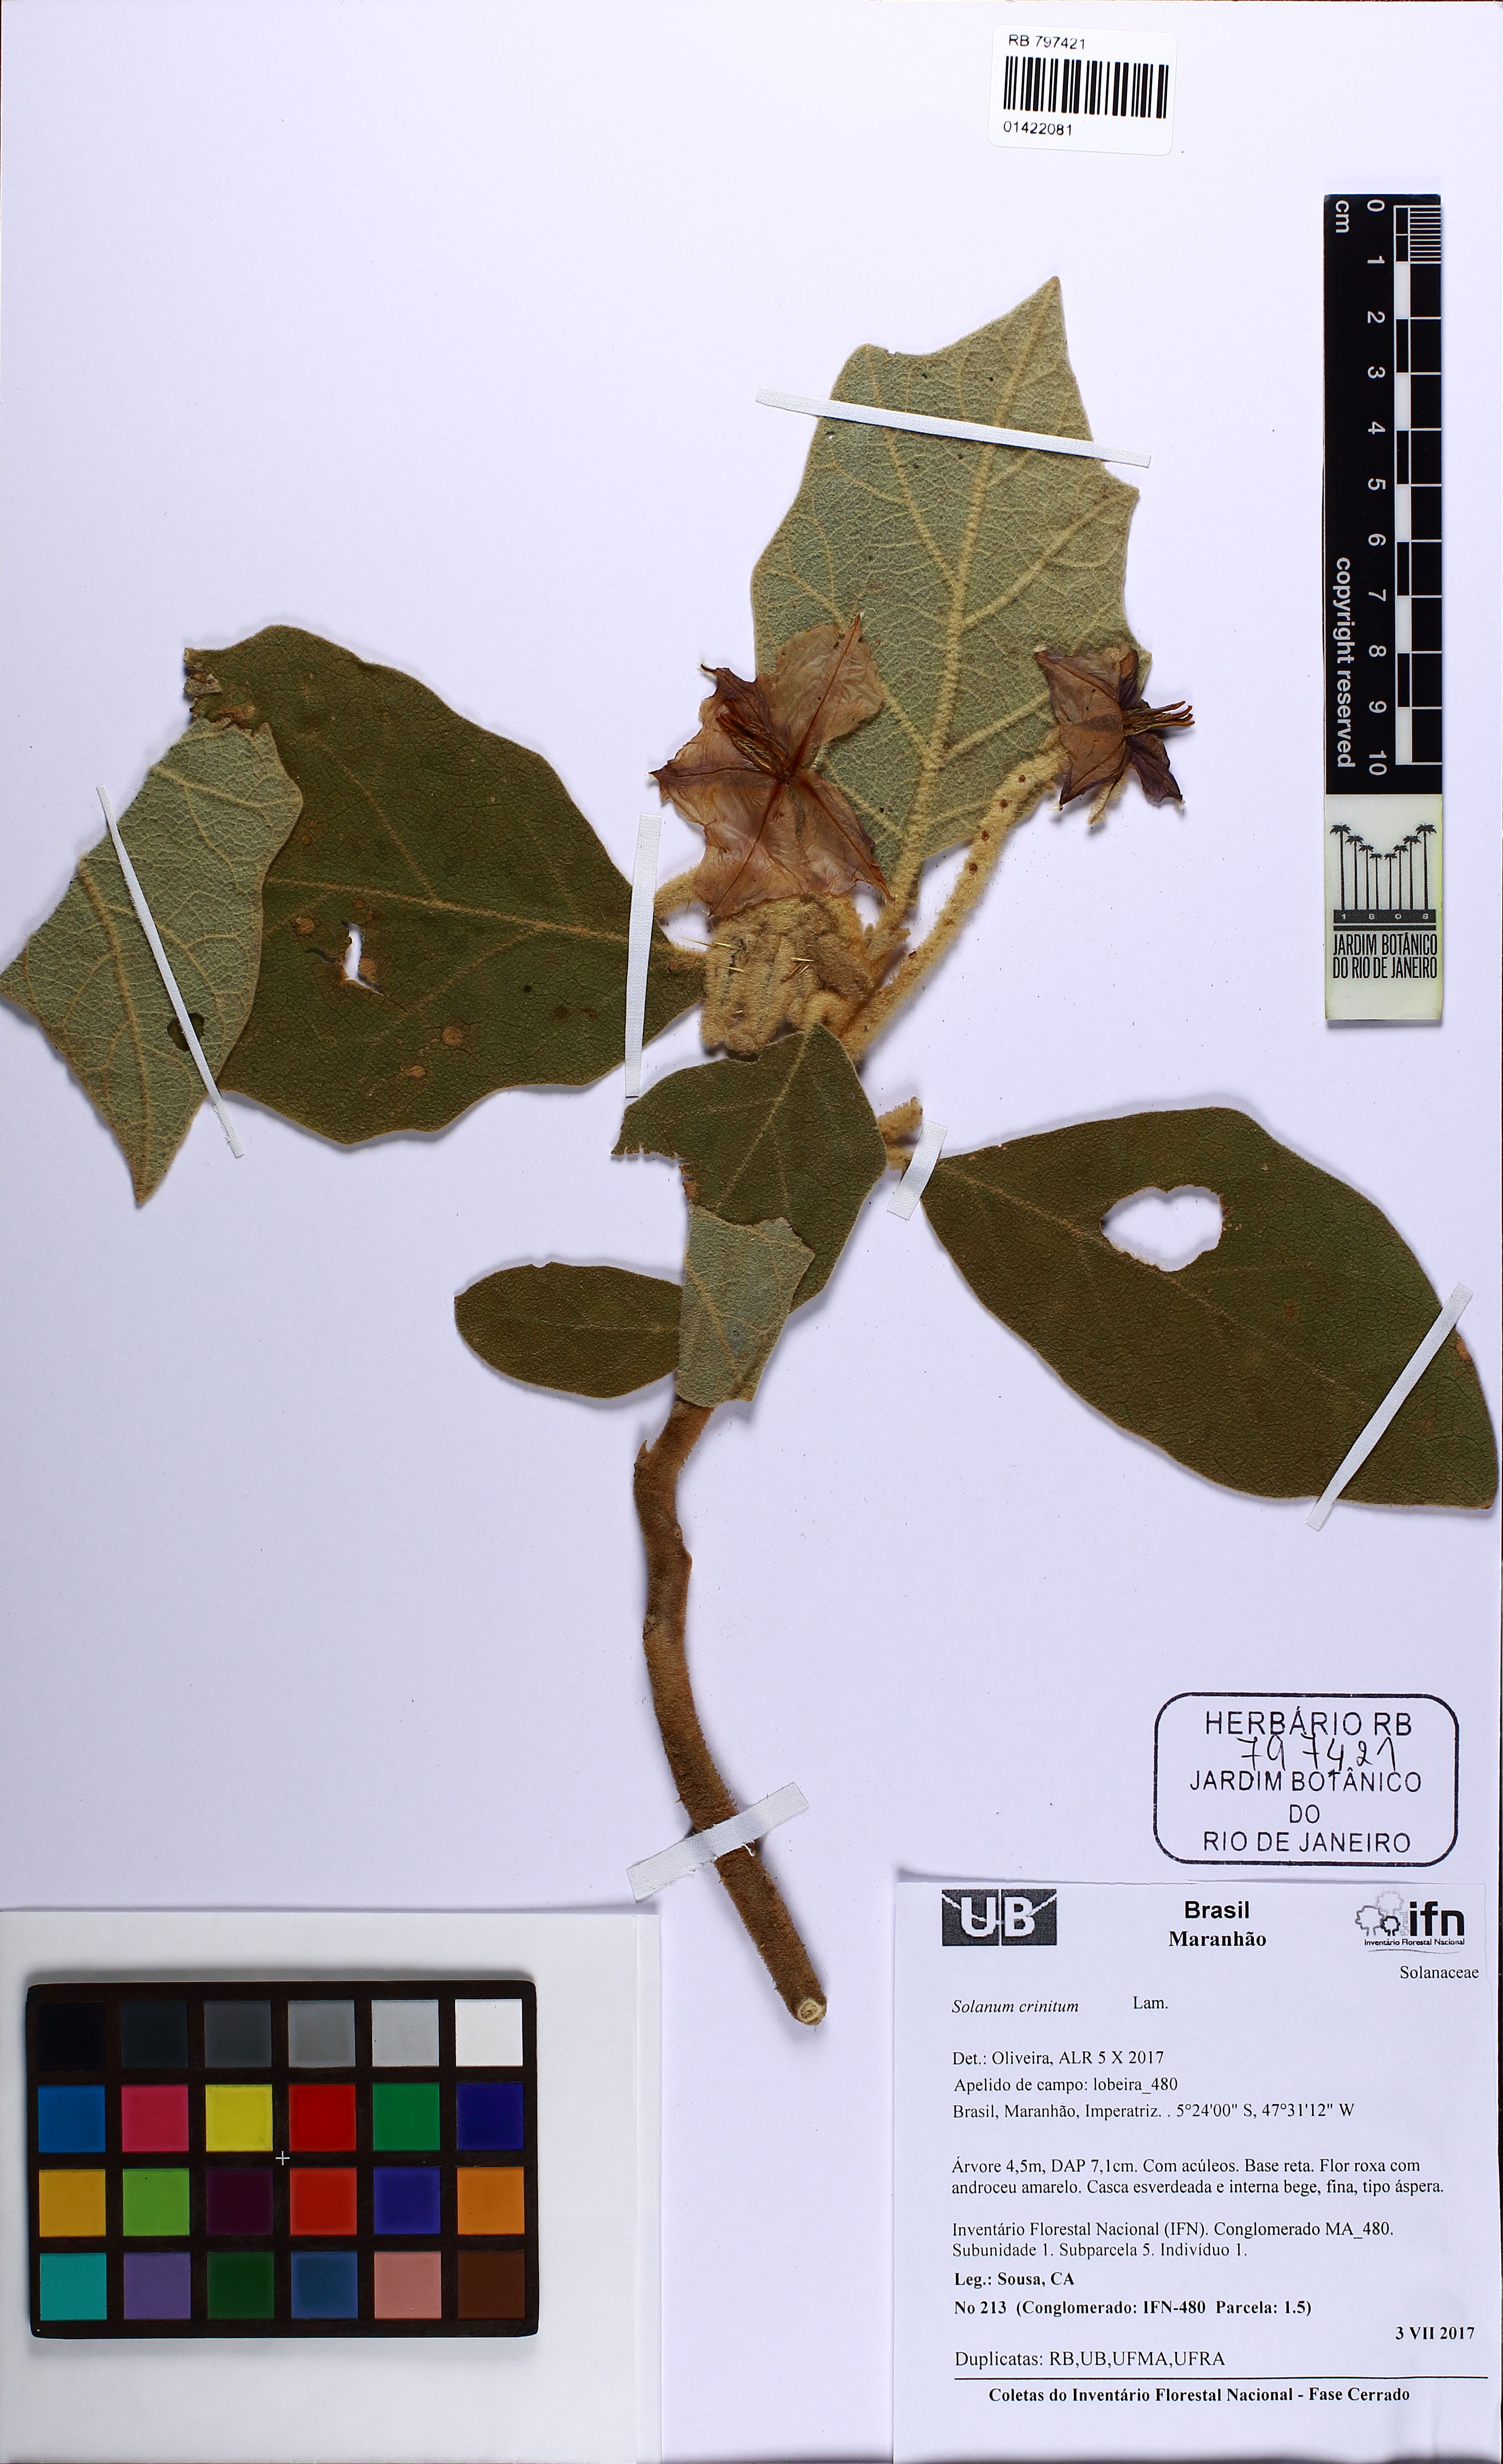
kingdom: Plantae
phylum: Tracheophyta
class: Magnoliopsida
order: Solanales
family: Solanaceae
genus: Solanum
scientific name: Solanum crinitum
